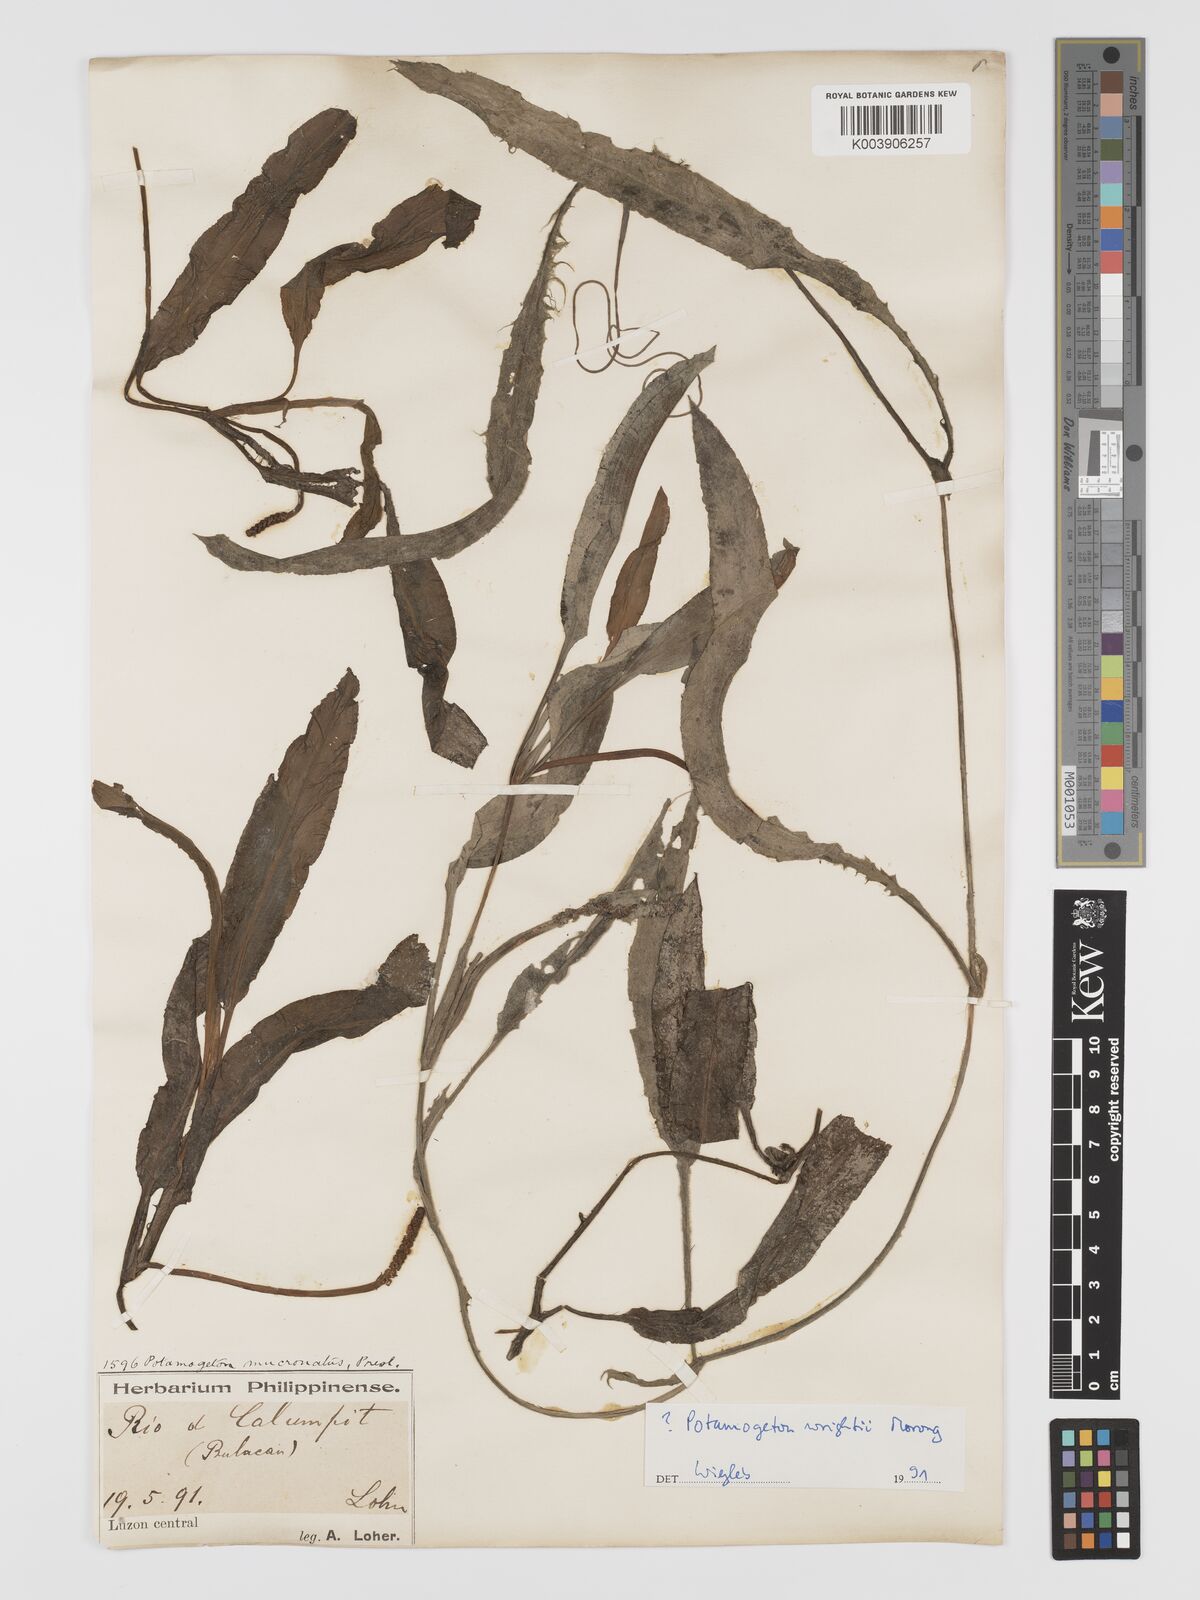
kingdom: Plantae
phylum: Tracheophyta
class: Liliopsida
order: Alismatales
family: Potamogetonaceae
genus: Potamogeton
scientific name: Potamogeton wrightii
